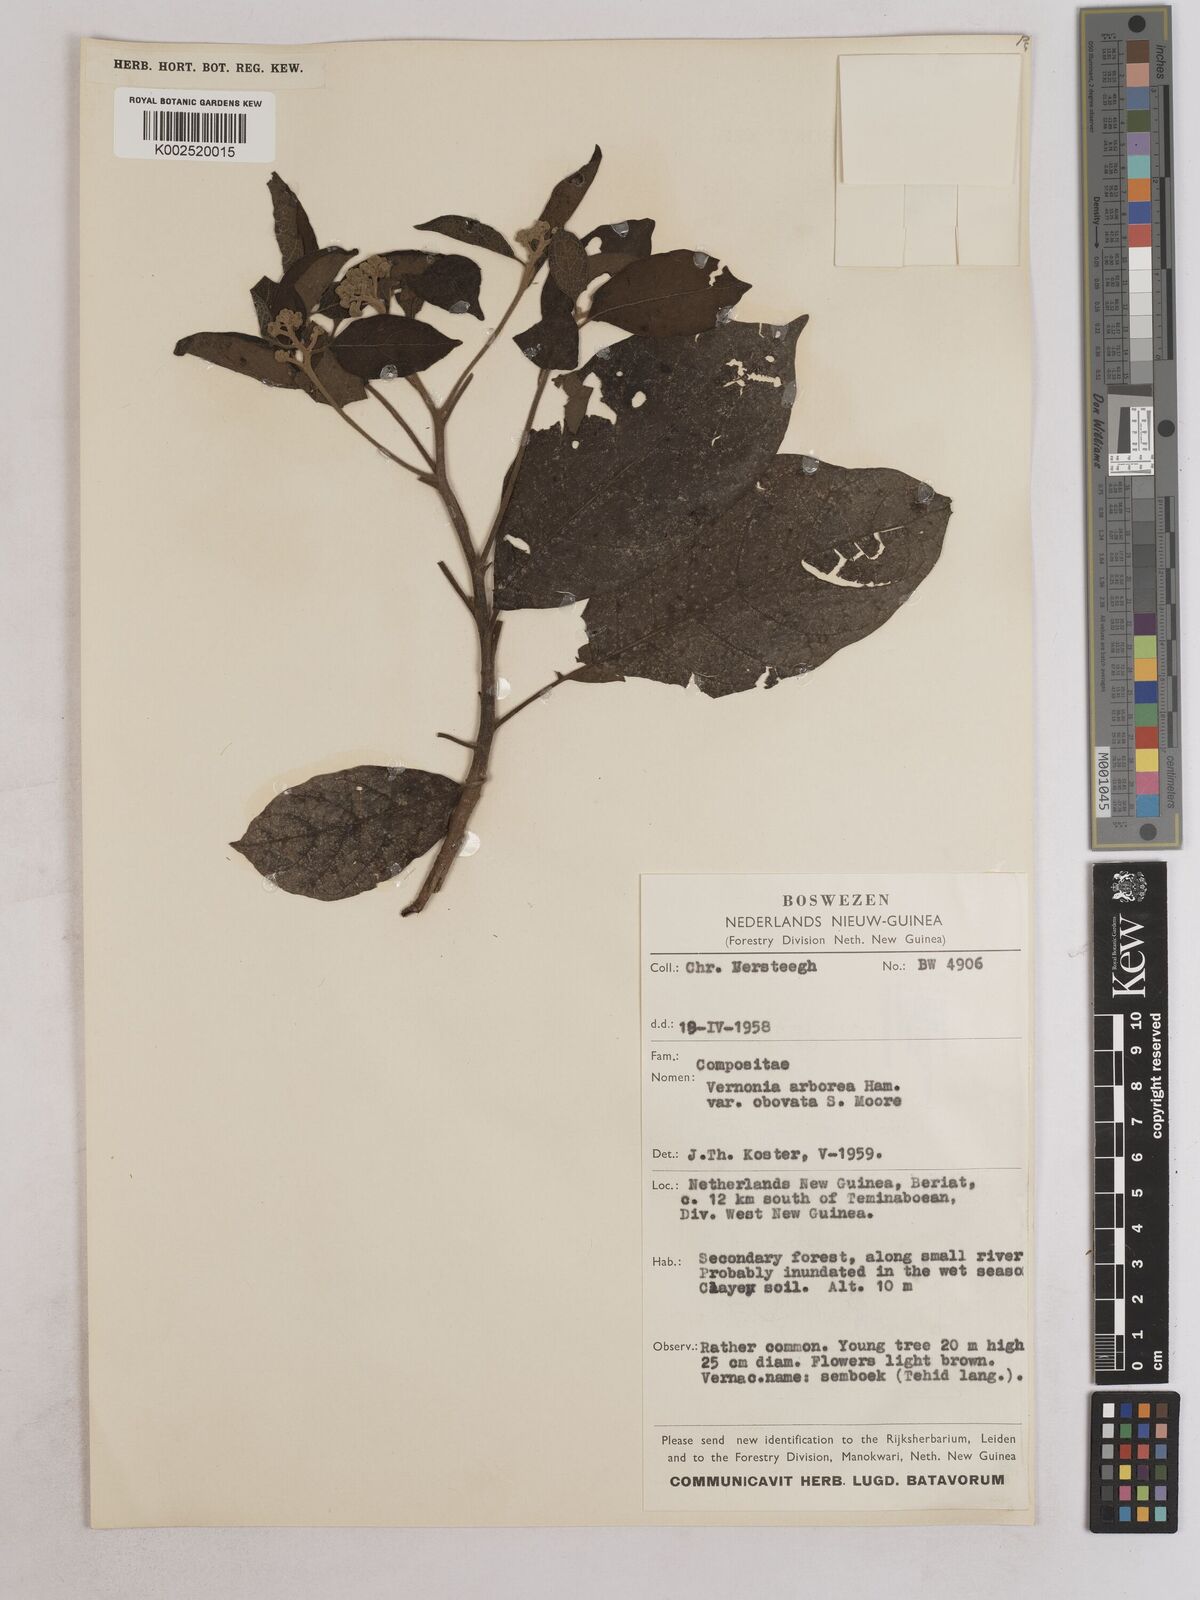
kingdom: Plantae
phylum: Tracheophyta
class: Magnoliopsida
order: Asterales
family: Asteraceae
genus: Strobocalyx
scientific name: Strobocalyx arborea
